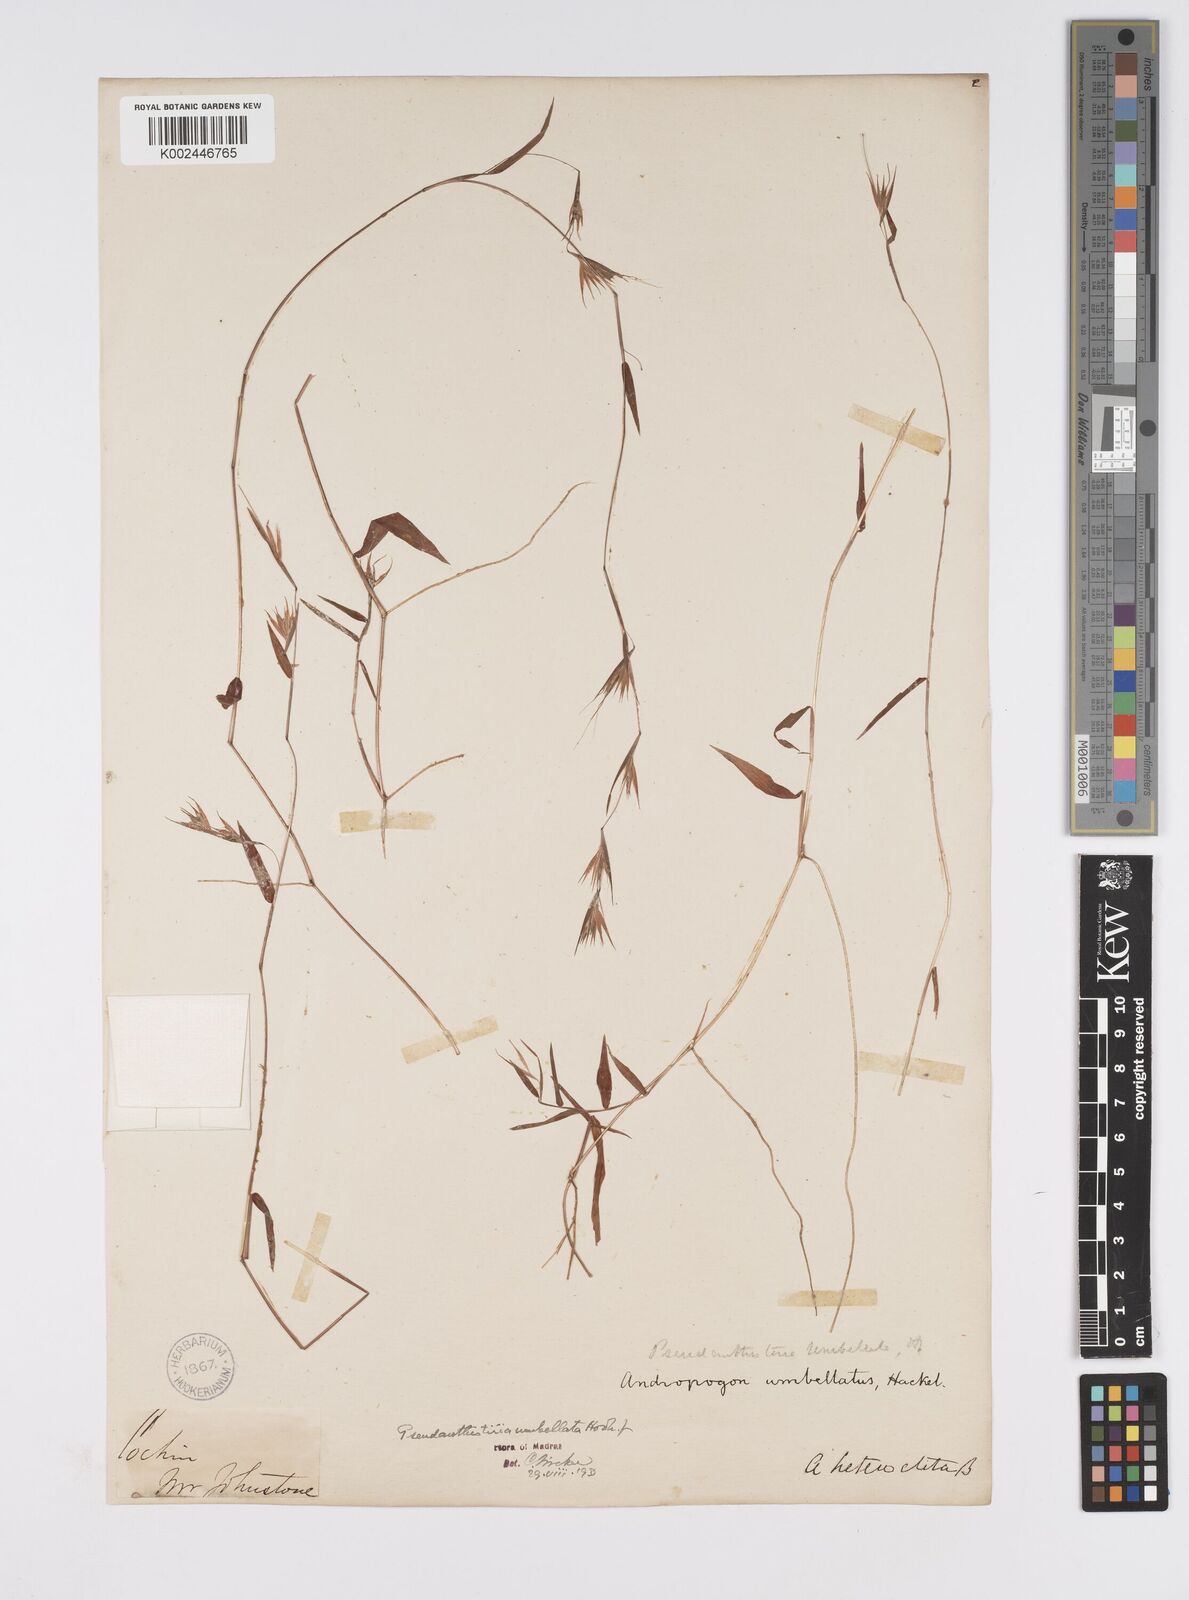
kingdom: Plantae
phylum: Tracheophyta
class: Liliopsida
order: Poales
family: Poaceae
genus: Pseudanthistiria
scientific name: Pseudanthistiria umbellata
